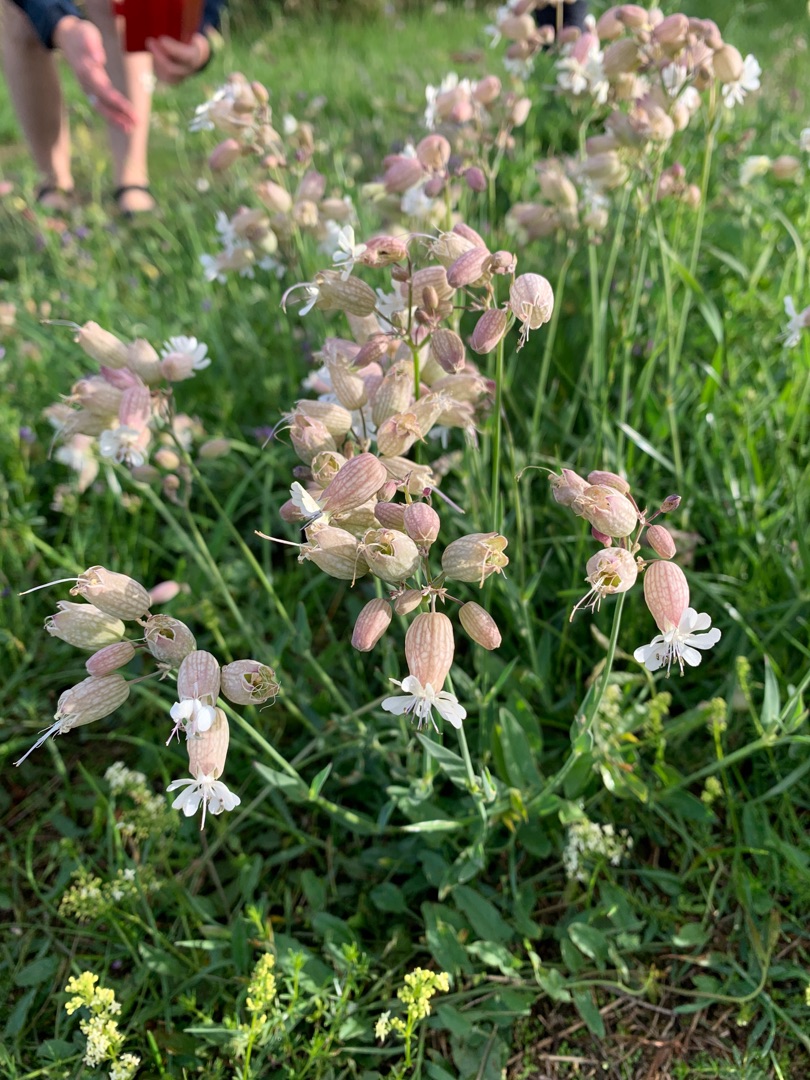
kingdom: Plantae
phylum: Tracheophyta
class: Magnoliopsida
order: Caryophyllales
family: Caryophyllaceae
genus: Silene
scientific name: Silene vulgaris
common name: Blæresmælde
